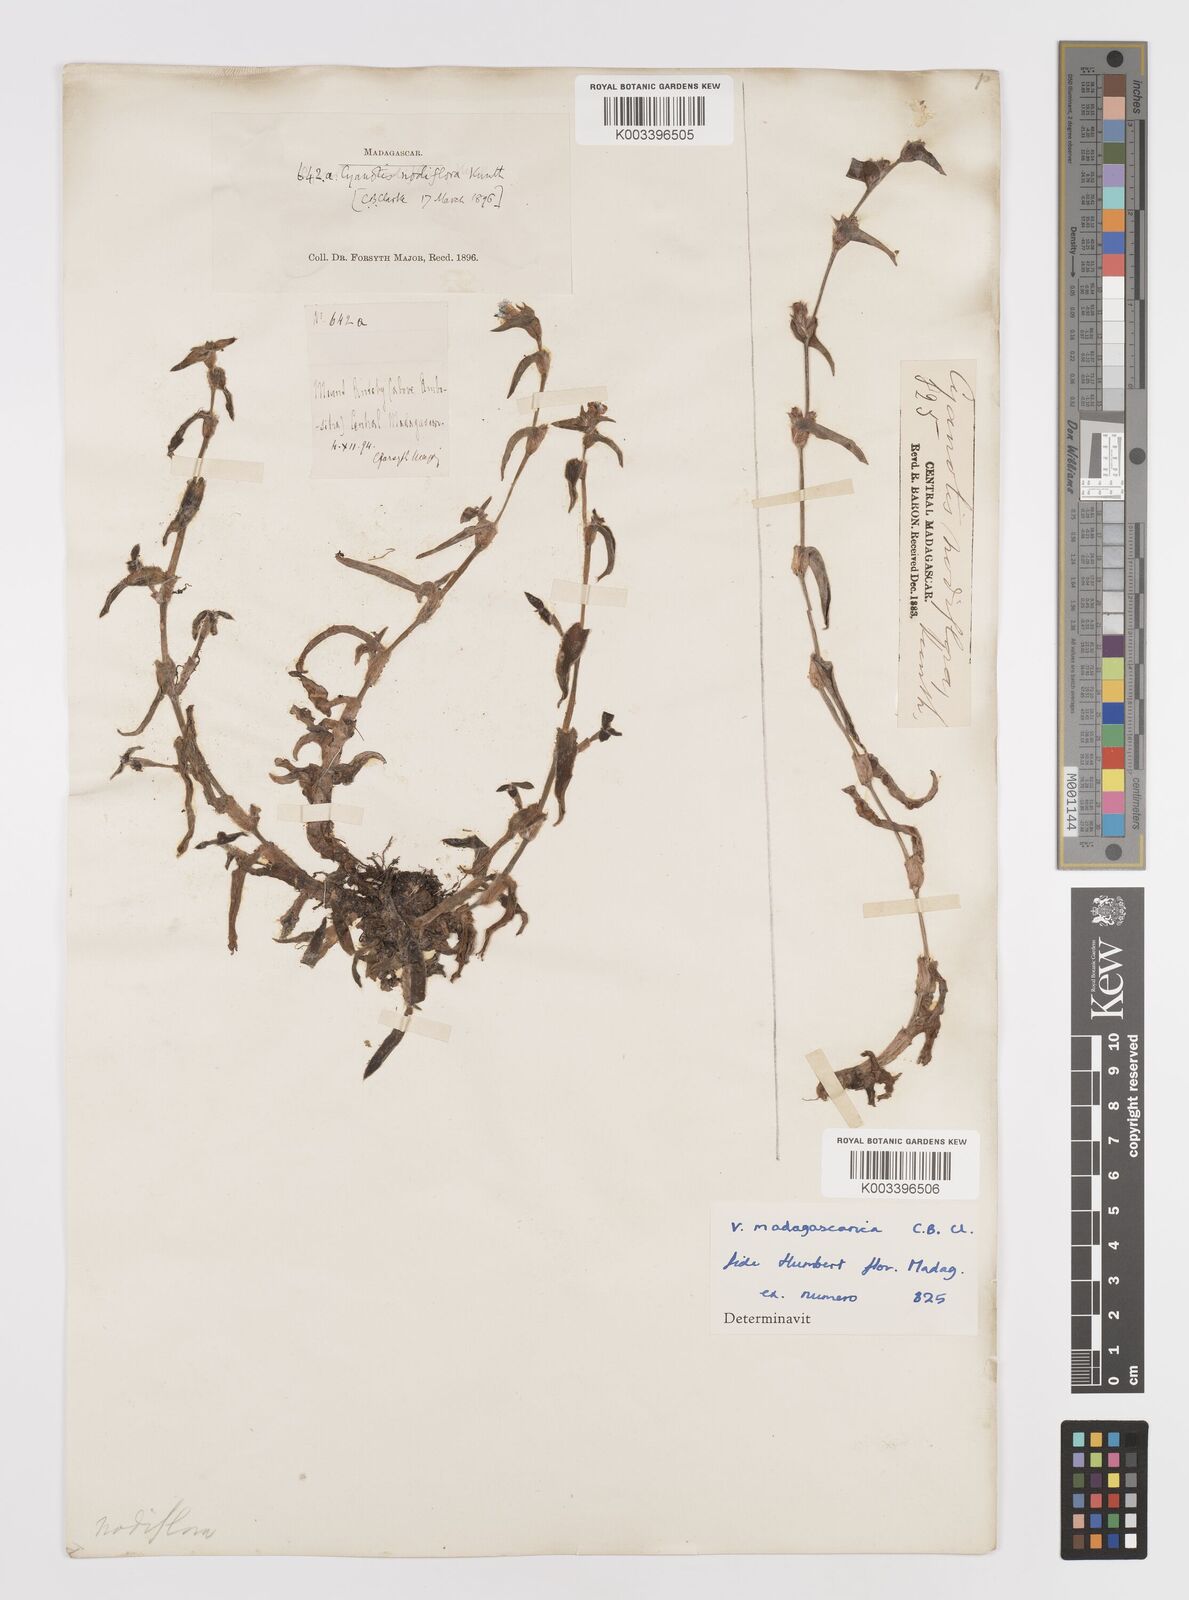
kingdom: Plantae
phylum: Tracheophyta
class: Liliopsida
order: Commelinales
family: Commelinaceae
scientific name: Commelinaceae
